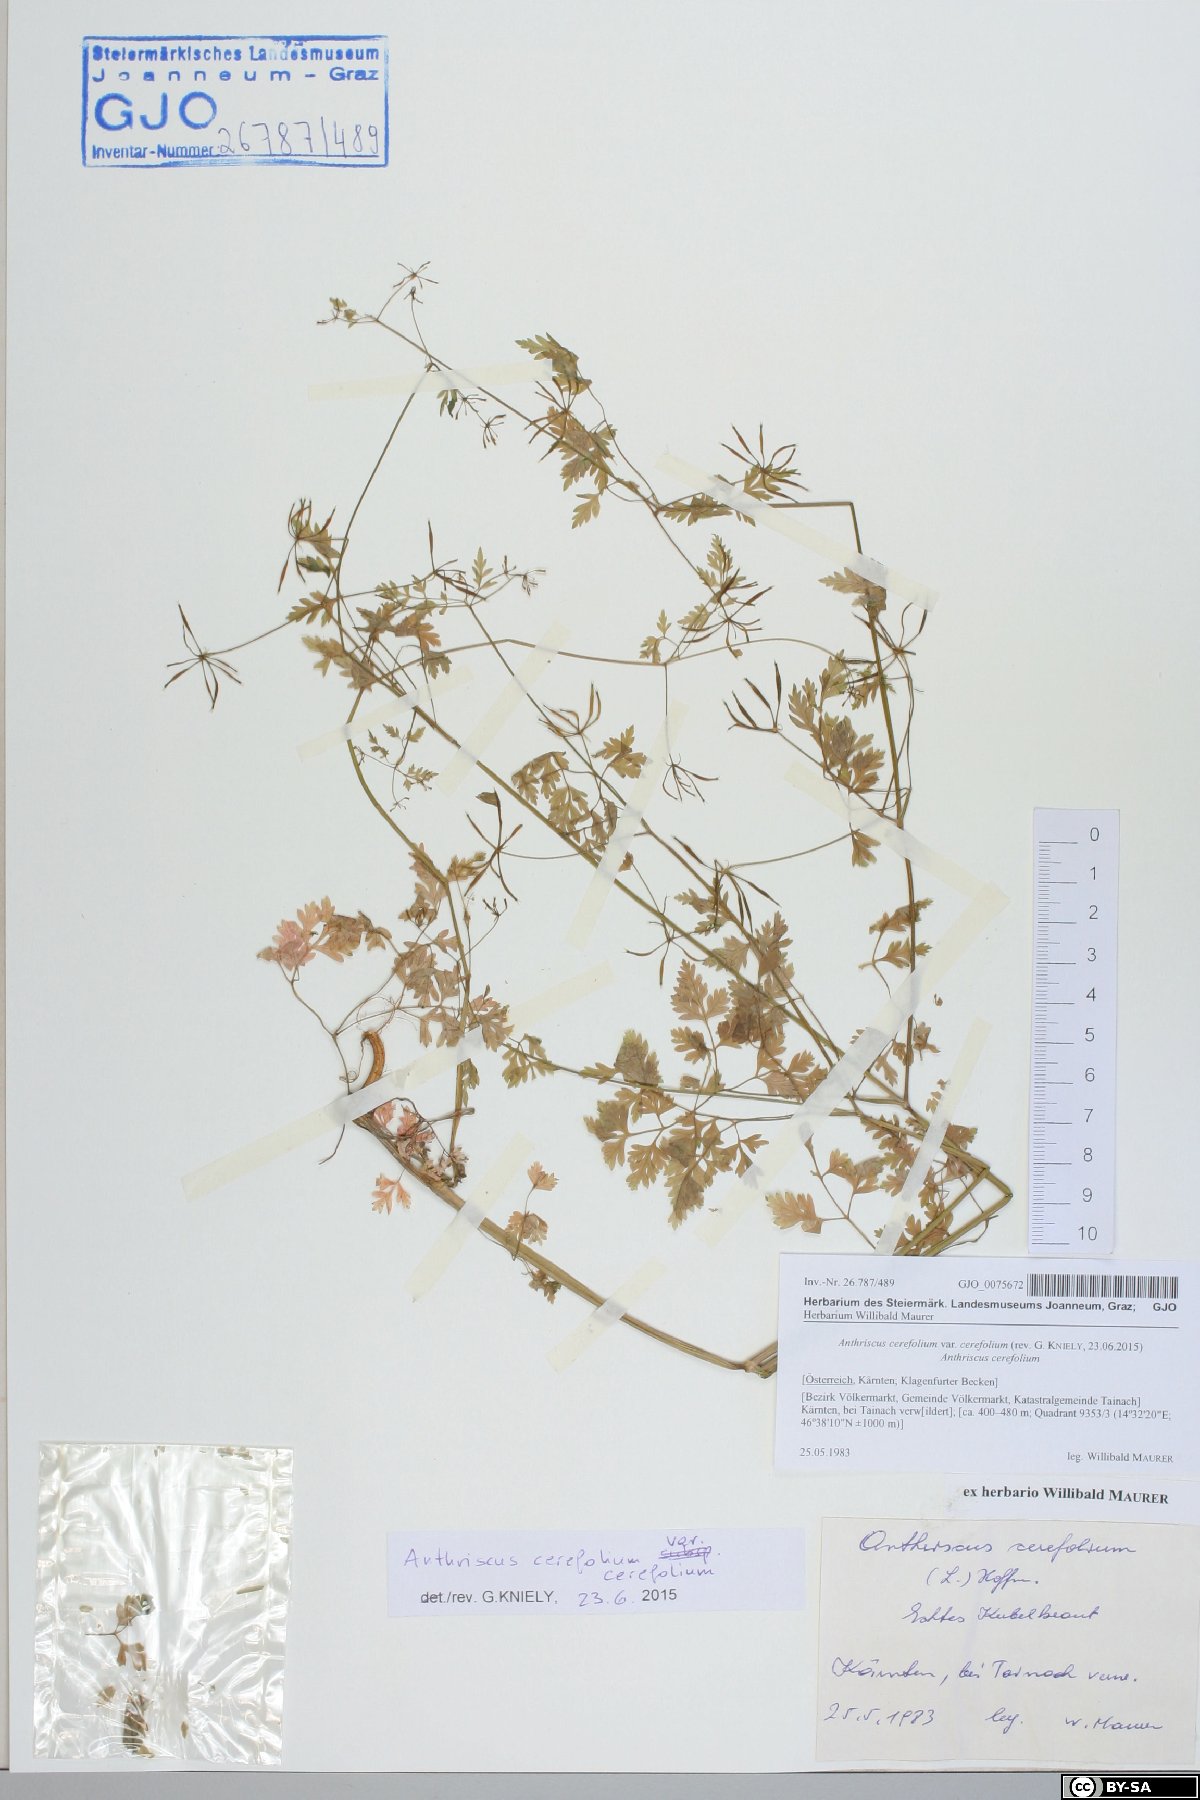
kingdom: Plantae
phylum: Tracheophyta
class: Magnoliopsida
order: Apiales
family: Apiaceae
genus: Anthriscus
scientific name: Anthriscus cerefolium
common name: Garden chervil
